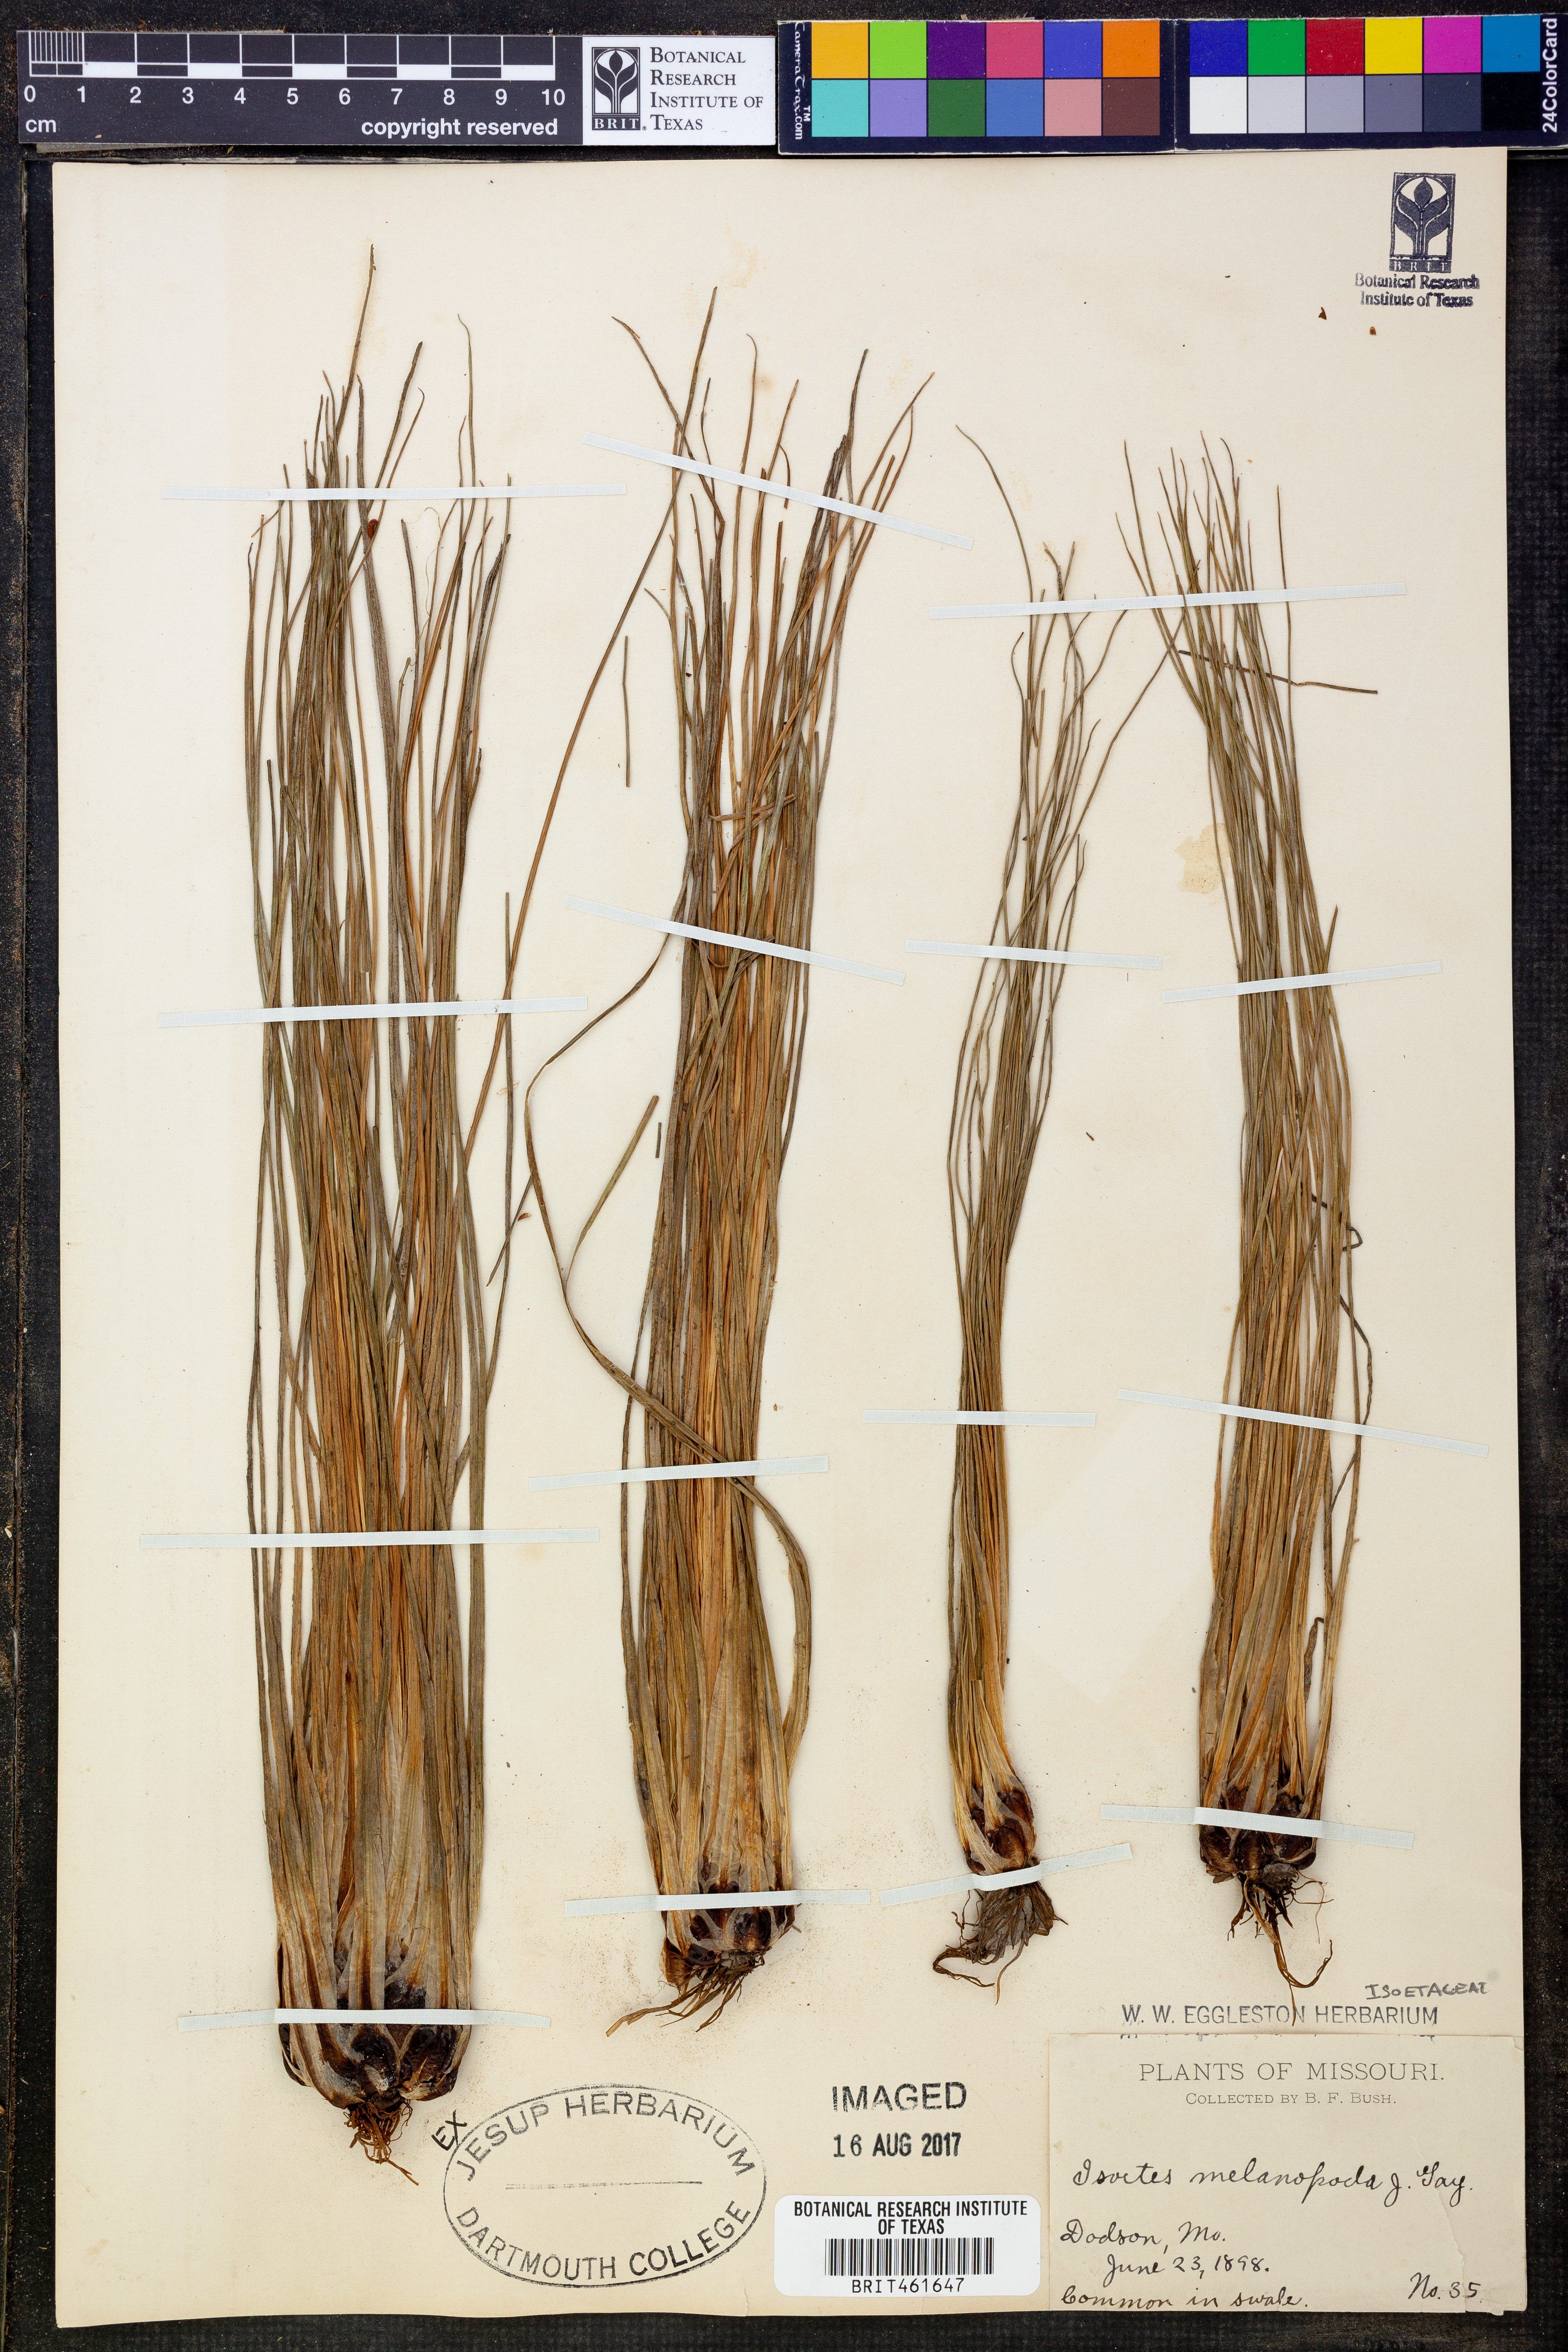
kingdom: Plantae
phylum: Tracheophyta
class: Lycopodiopsida
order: Isoetales
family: Isoetaceae
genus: Isoetes
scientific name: Isoetes melanopoda
